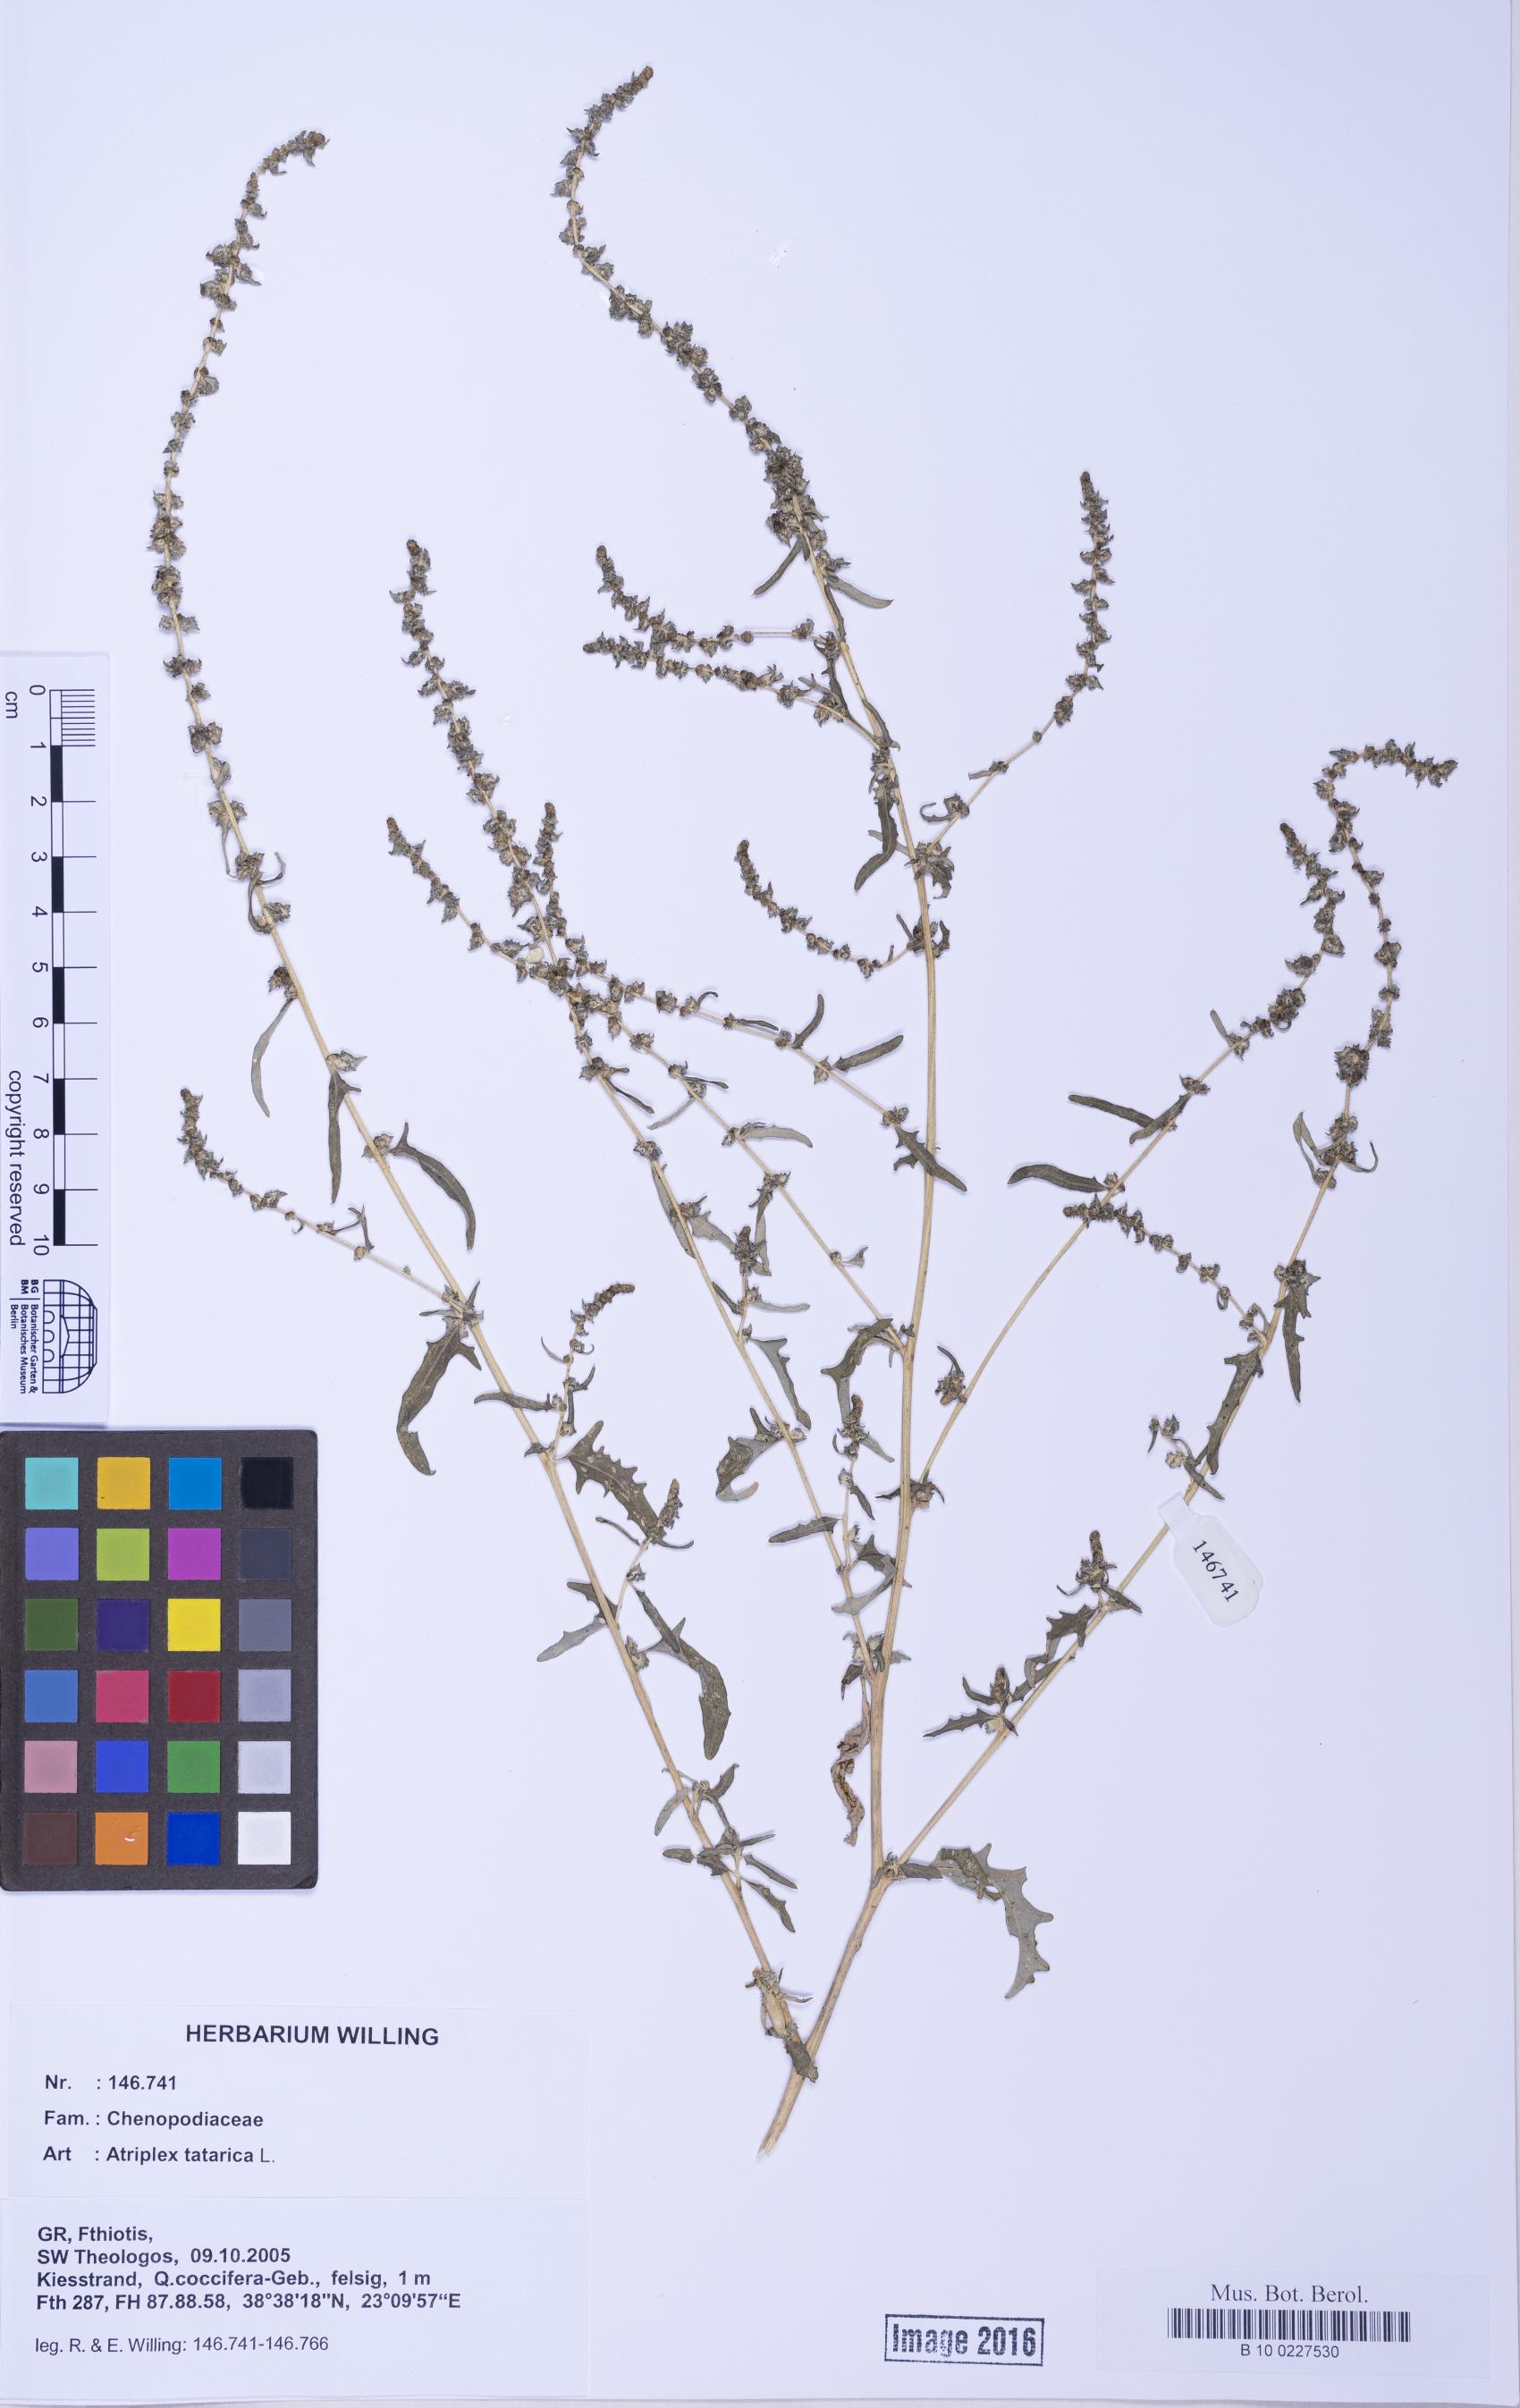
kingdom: Plantae
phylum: Tracheophyta
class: Magnoliopsida
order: Caryophyllales
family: Amaranthaceae
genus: Atriplex
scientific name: Atriplex tatarica
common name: Tatarian orache
